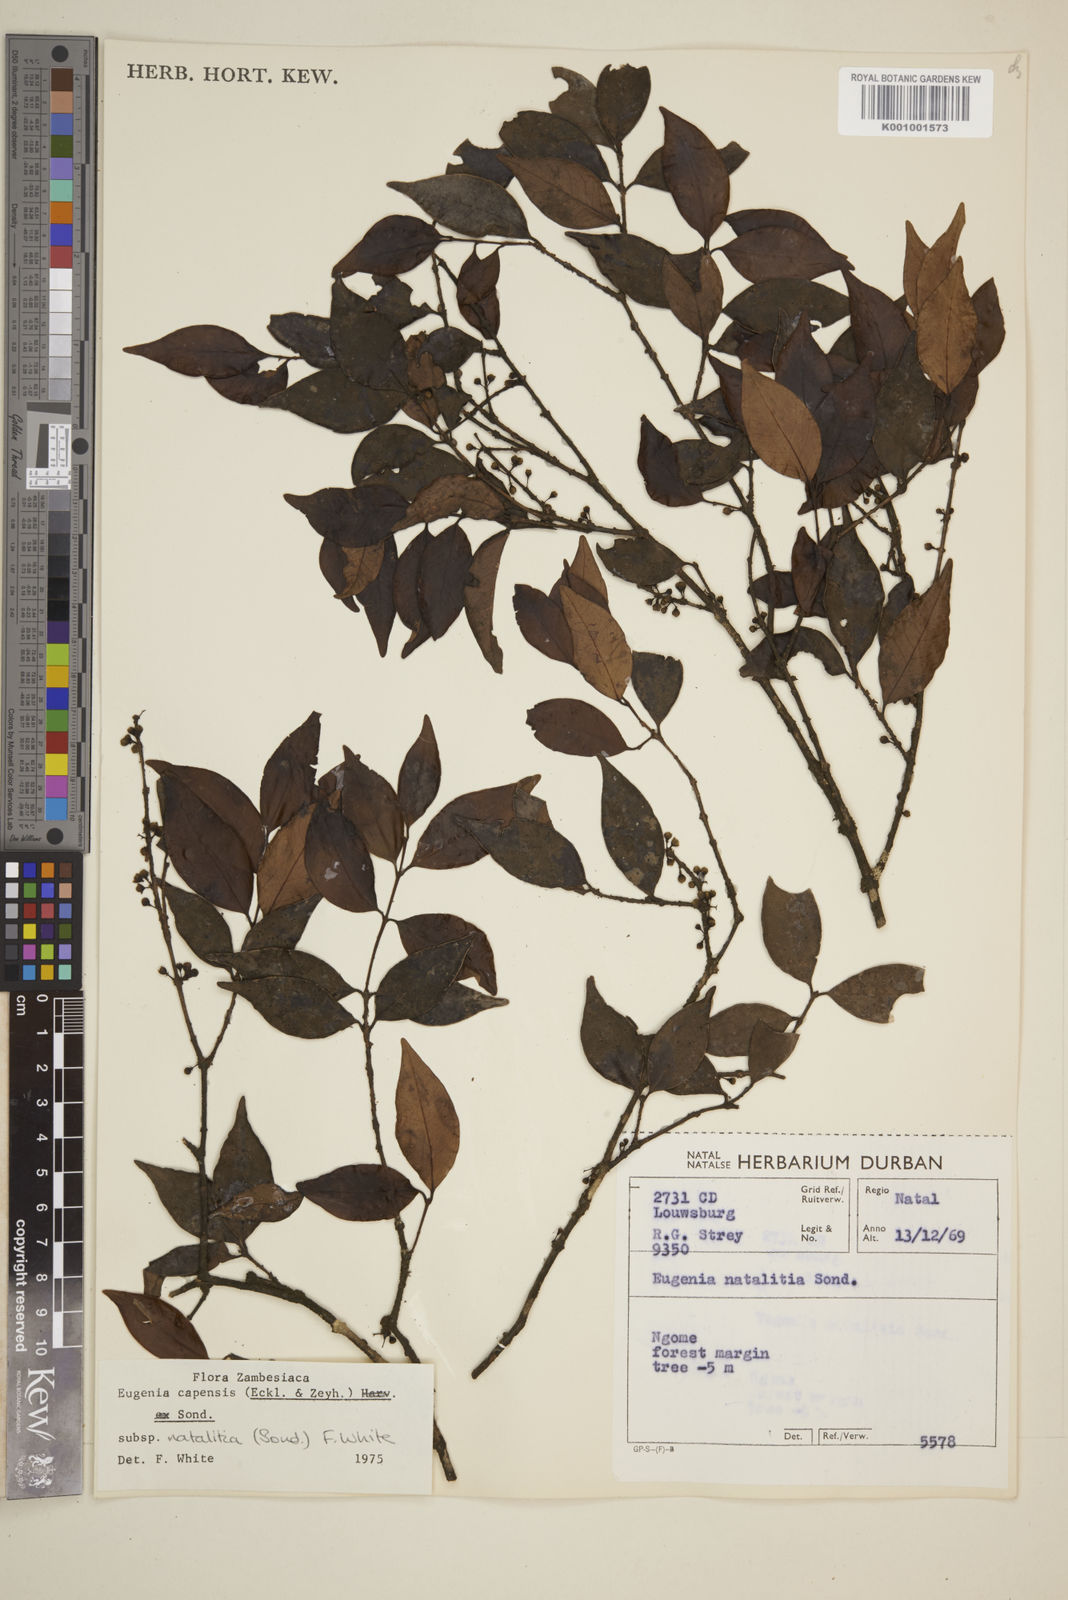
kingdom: Plantae
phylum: Tracheophyta
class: Magnoliopsida
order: Myrtales
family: Myrtaceae
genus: Eugenia
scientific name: Eugenia natalitia
